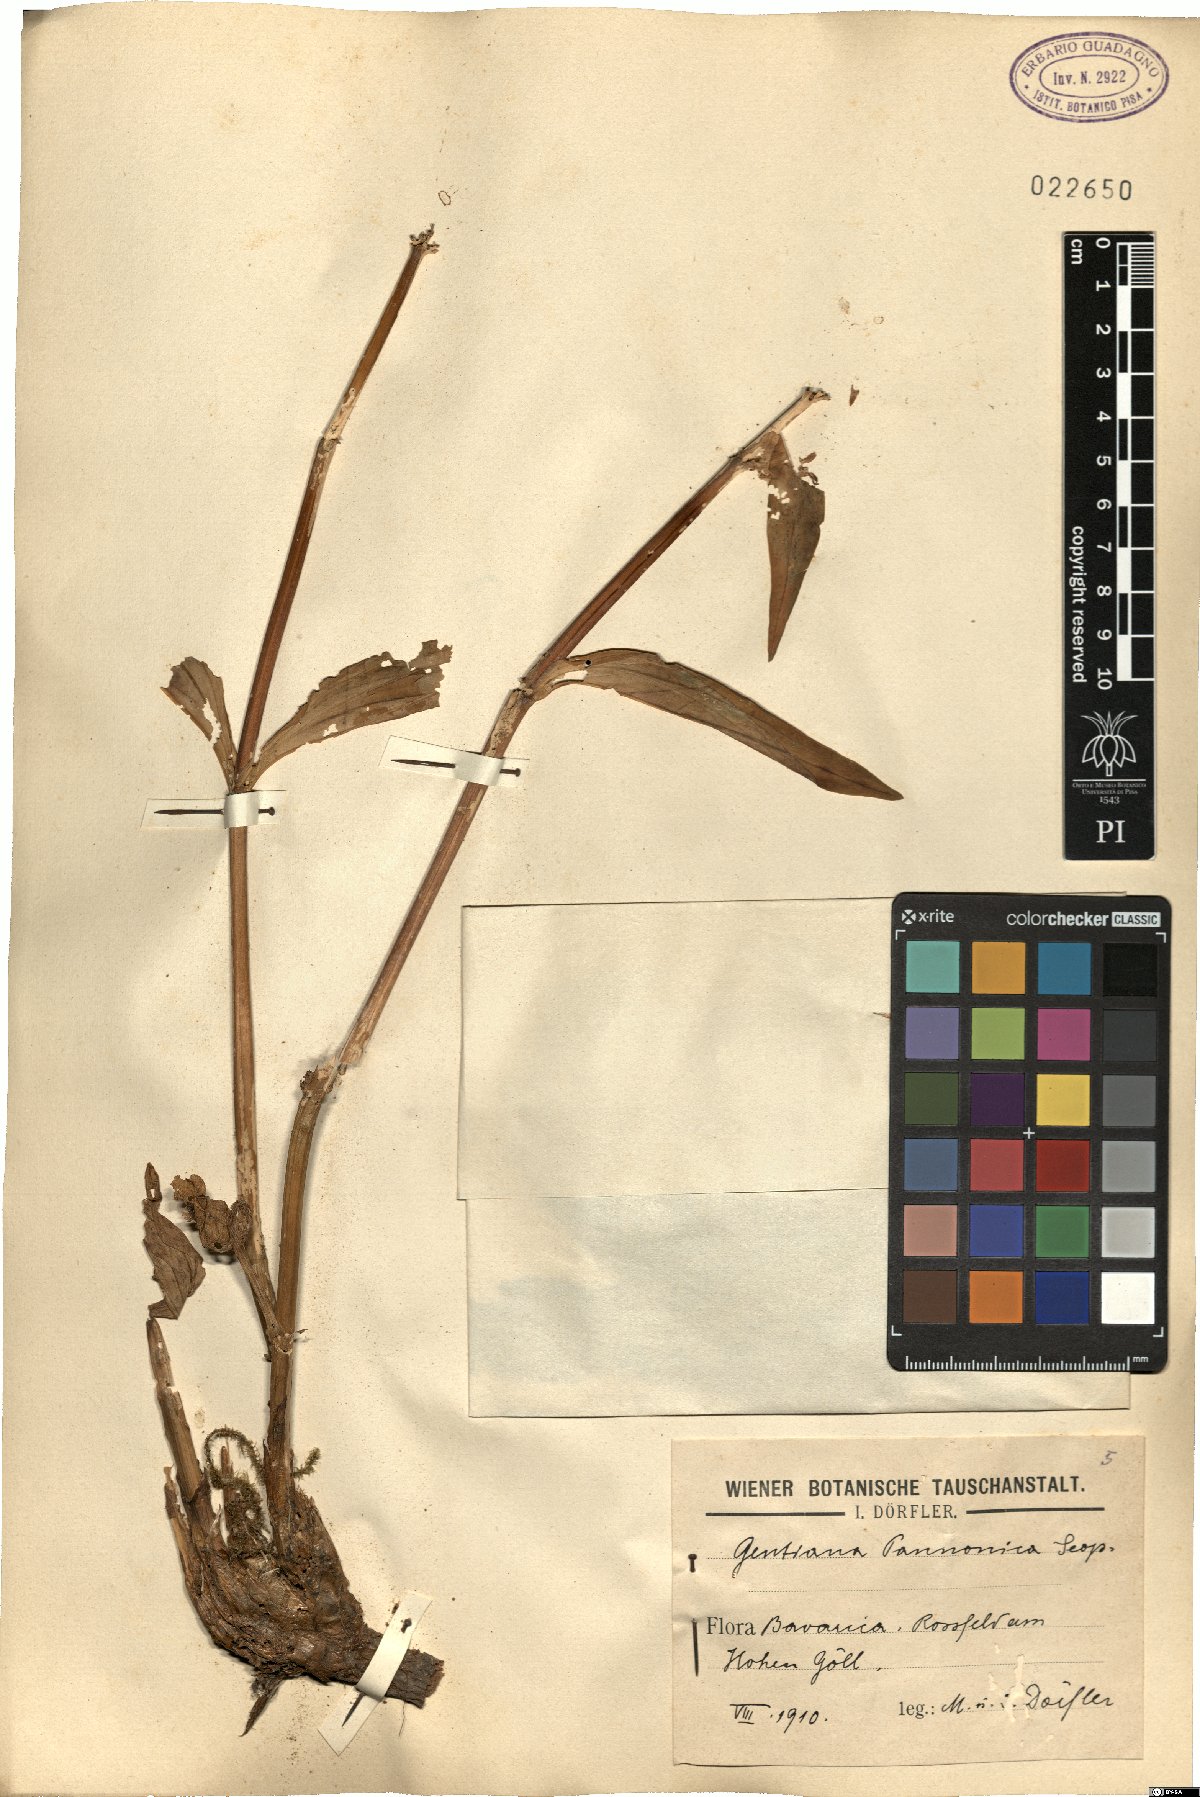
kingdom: Plantae
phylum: Tracheophyta
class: Magnoliopsida
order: Gentianales
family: Gentianaceae
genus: Gentiana
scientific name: Gentiana pannonica
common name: Hungarian gentian
